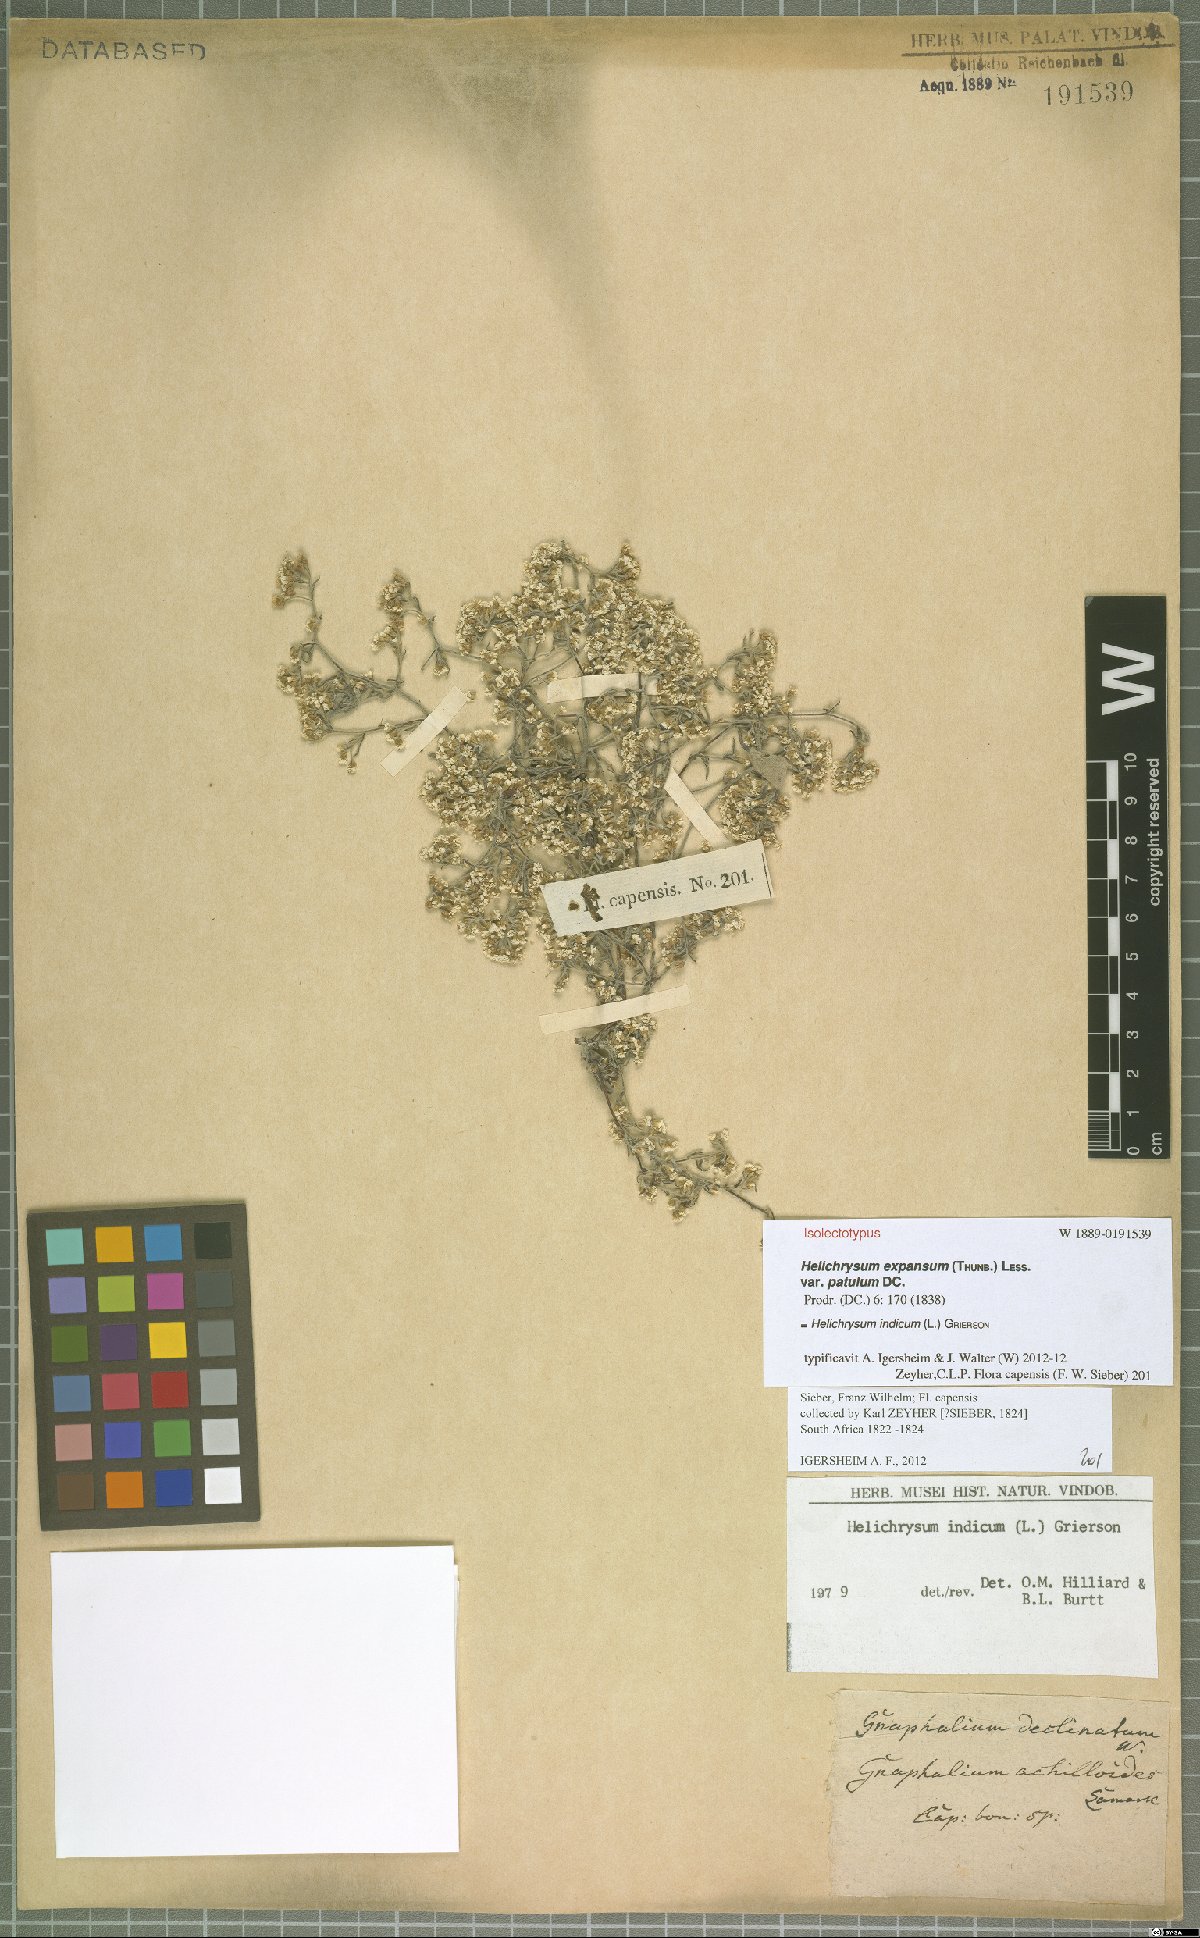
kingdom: Plantae
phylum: Tracheophyta
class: Magnoliopsida
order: Asterales
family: Asteraceae
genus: Helichrysum
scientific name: Helichrysum indicum
